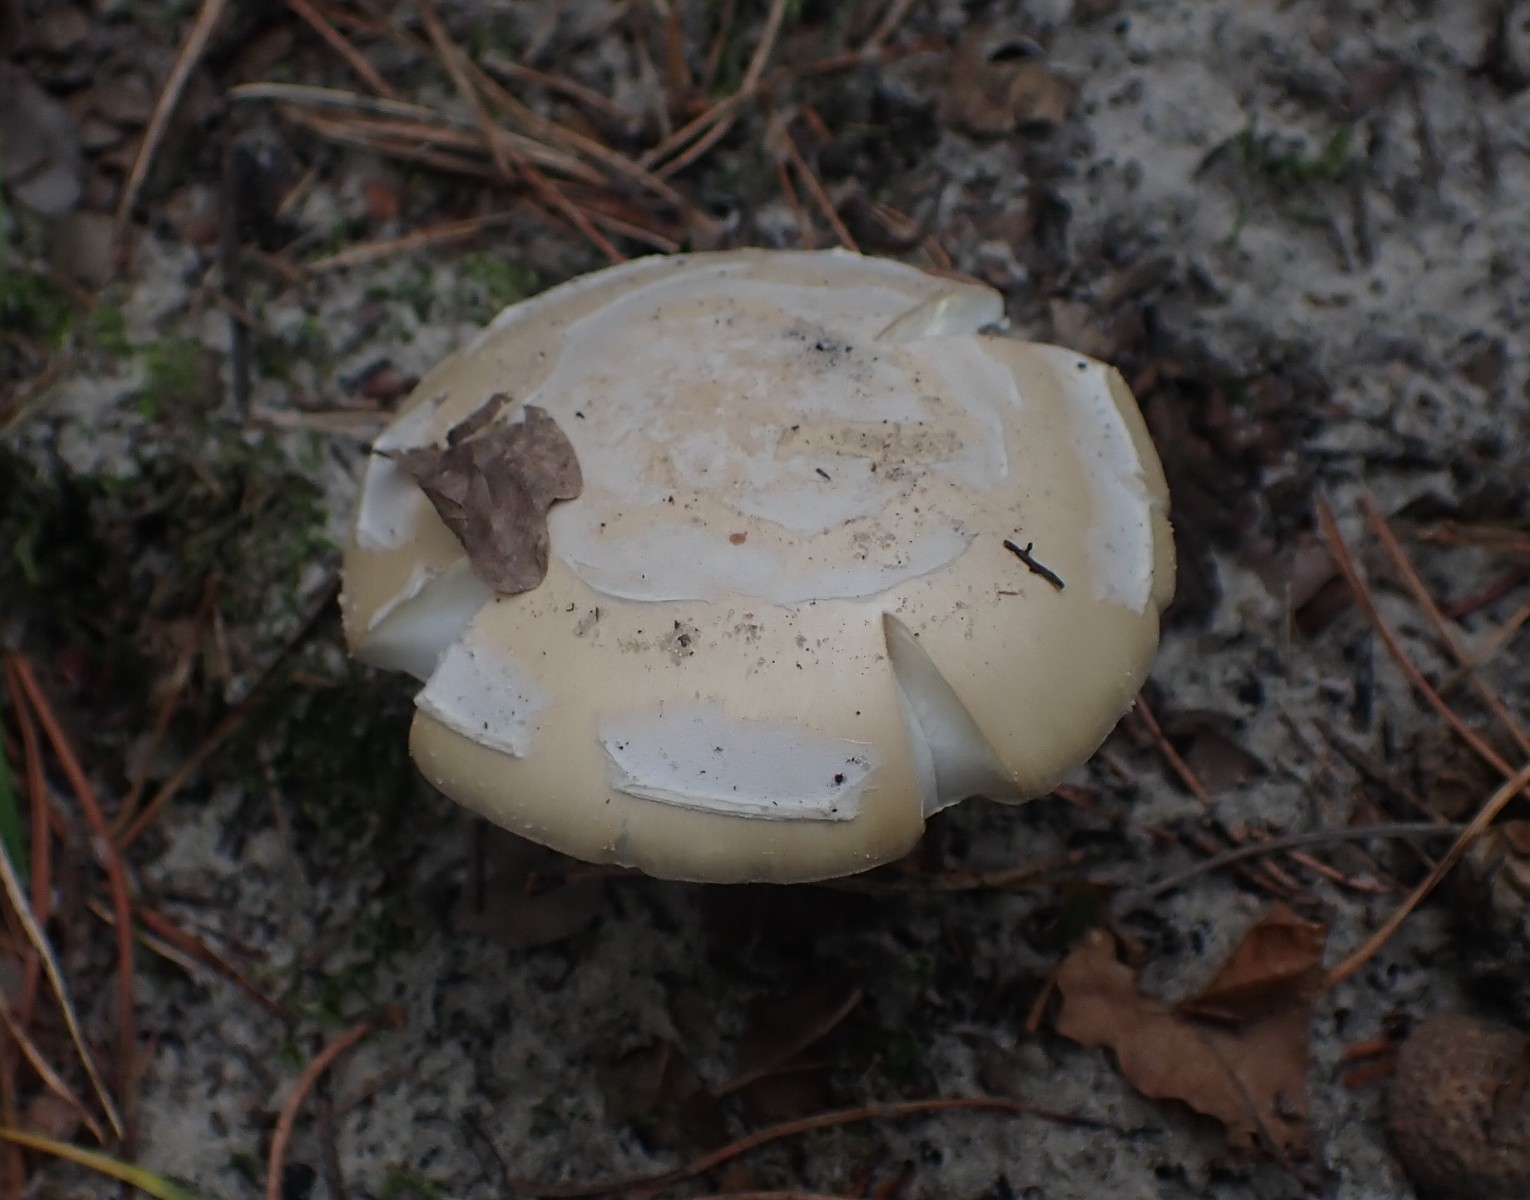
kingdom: Fungi
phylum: Basidiomycota
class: Agaricomycetes
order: Agaricales
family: Amanitaceae
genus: Amanita
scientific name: Amanita gemmata
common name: okkergul fluesvamp
